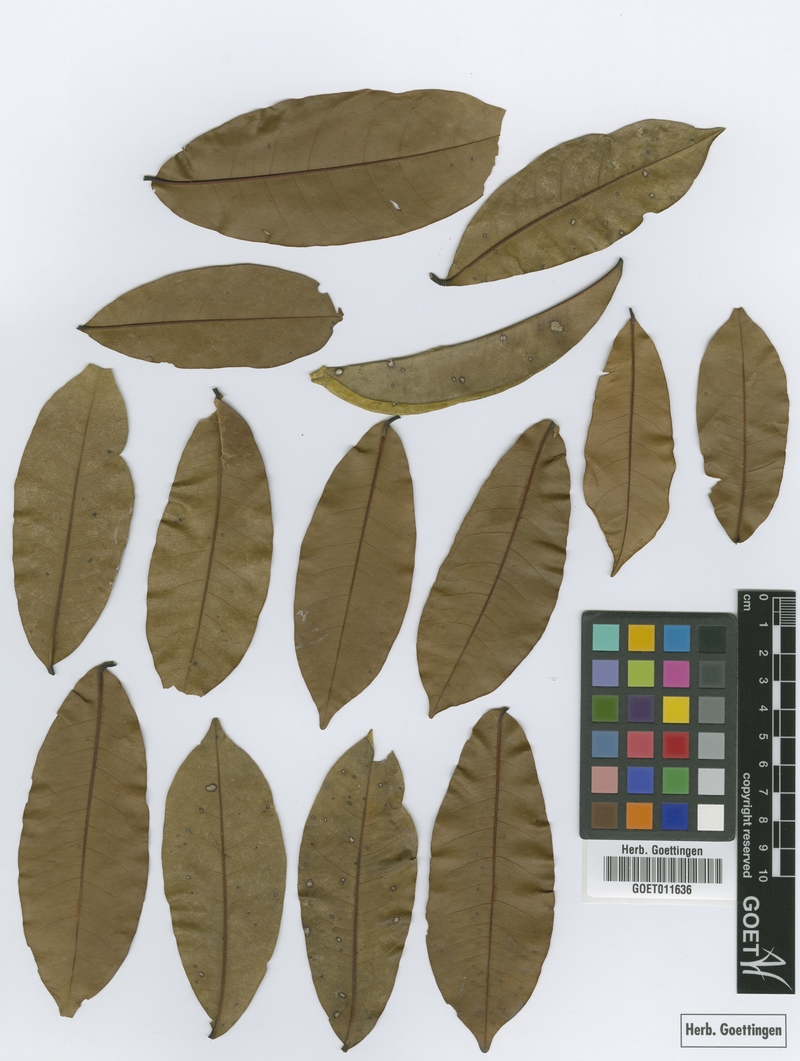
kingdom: Plantae
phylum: Tracheophyta
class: Magnoliopsida
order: Myrtales
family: Vochysiaceae
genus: Vochysia
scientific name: Vochysia tetraphylla
